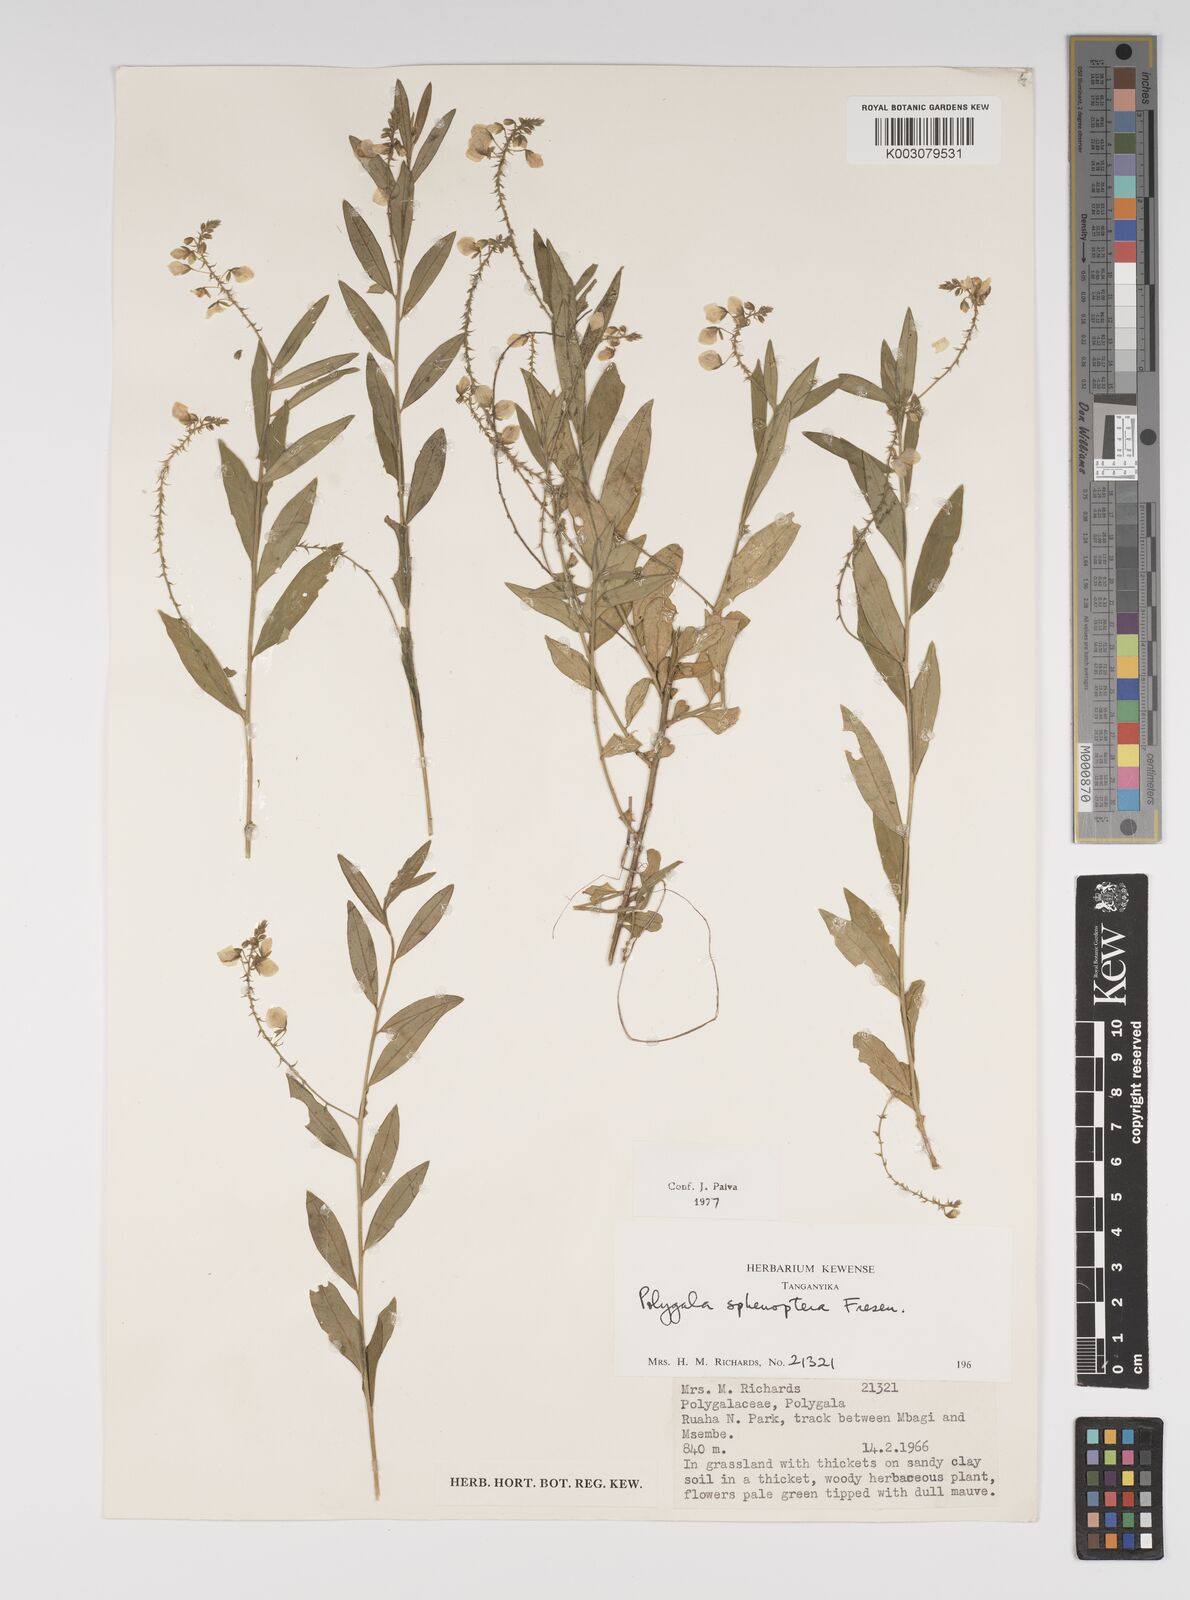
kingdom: Plantae
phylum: Tracheophyta
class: Magnoliopsida
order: Fabales
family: Polygalaceae
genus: Polygala
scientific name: Polygala sphenoptera
